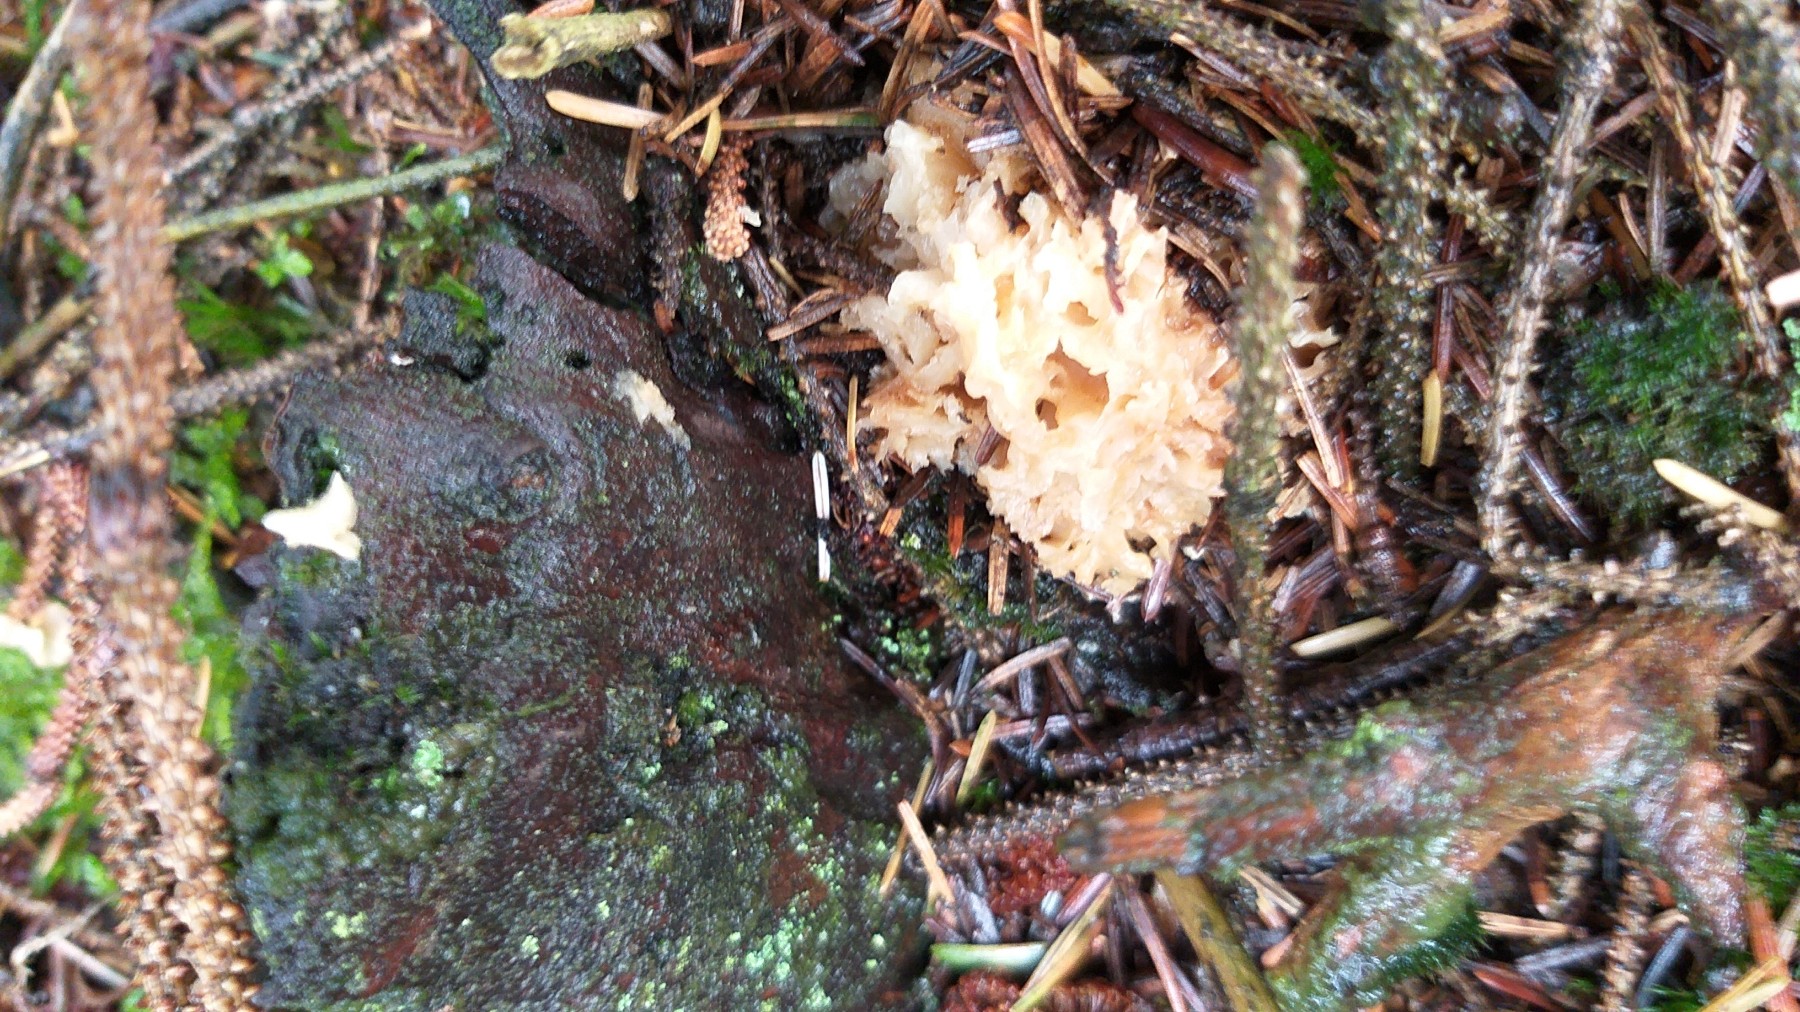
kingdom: Fungi
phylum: Basidiomycota
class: Agaricomycetes
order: Polyporales
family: Sparassidaceae
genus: Sparassis
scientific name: Sparassis crispa
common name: kruset blomkålssvamp
